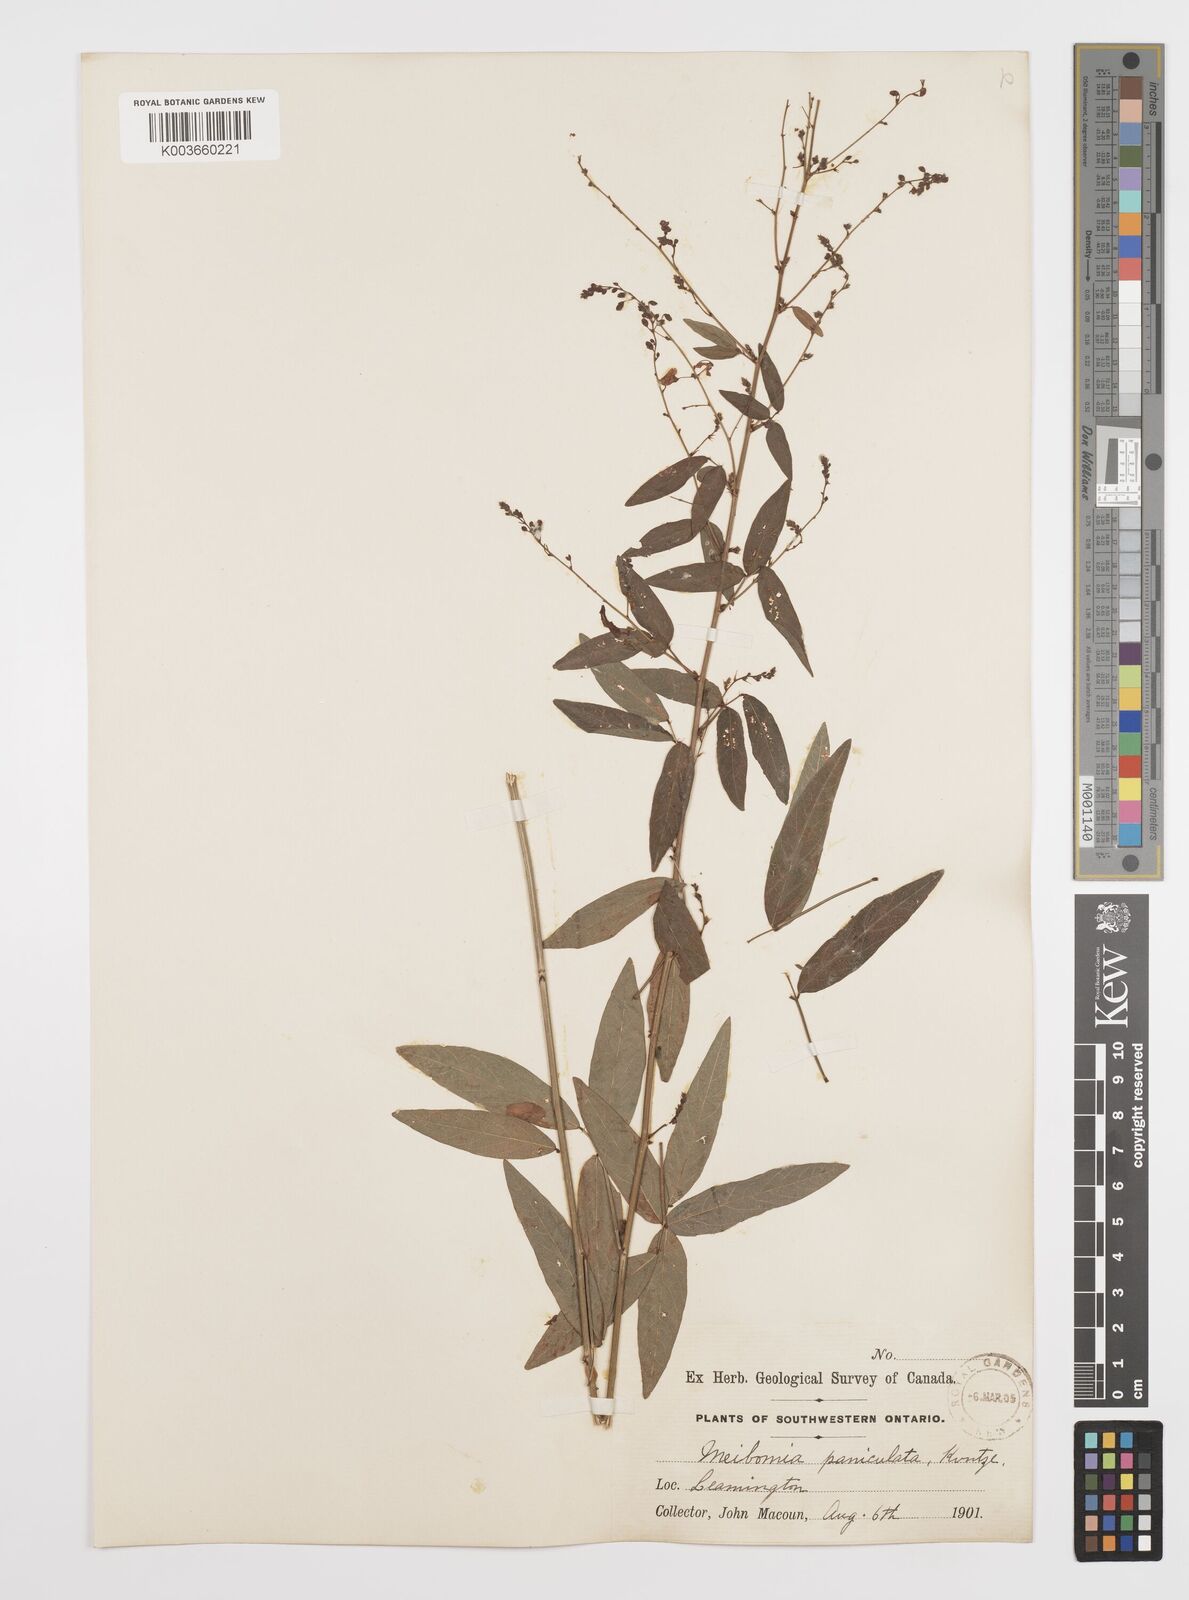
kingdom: Plantae
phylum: Tracheophyta
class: Magnoliopsida
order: Fabales
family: Fabaceae
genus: Desmodium
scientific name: Desmodium paniculatum
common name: Panicled tick-clover
